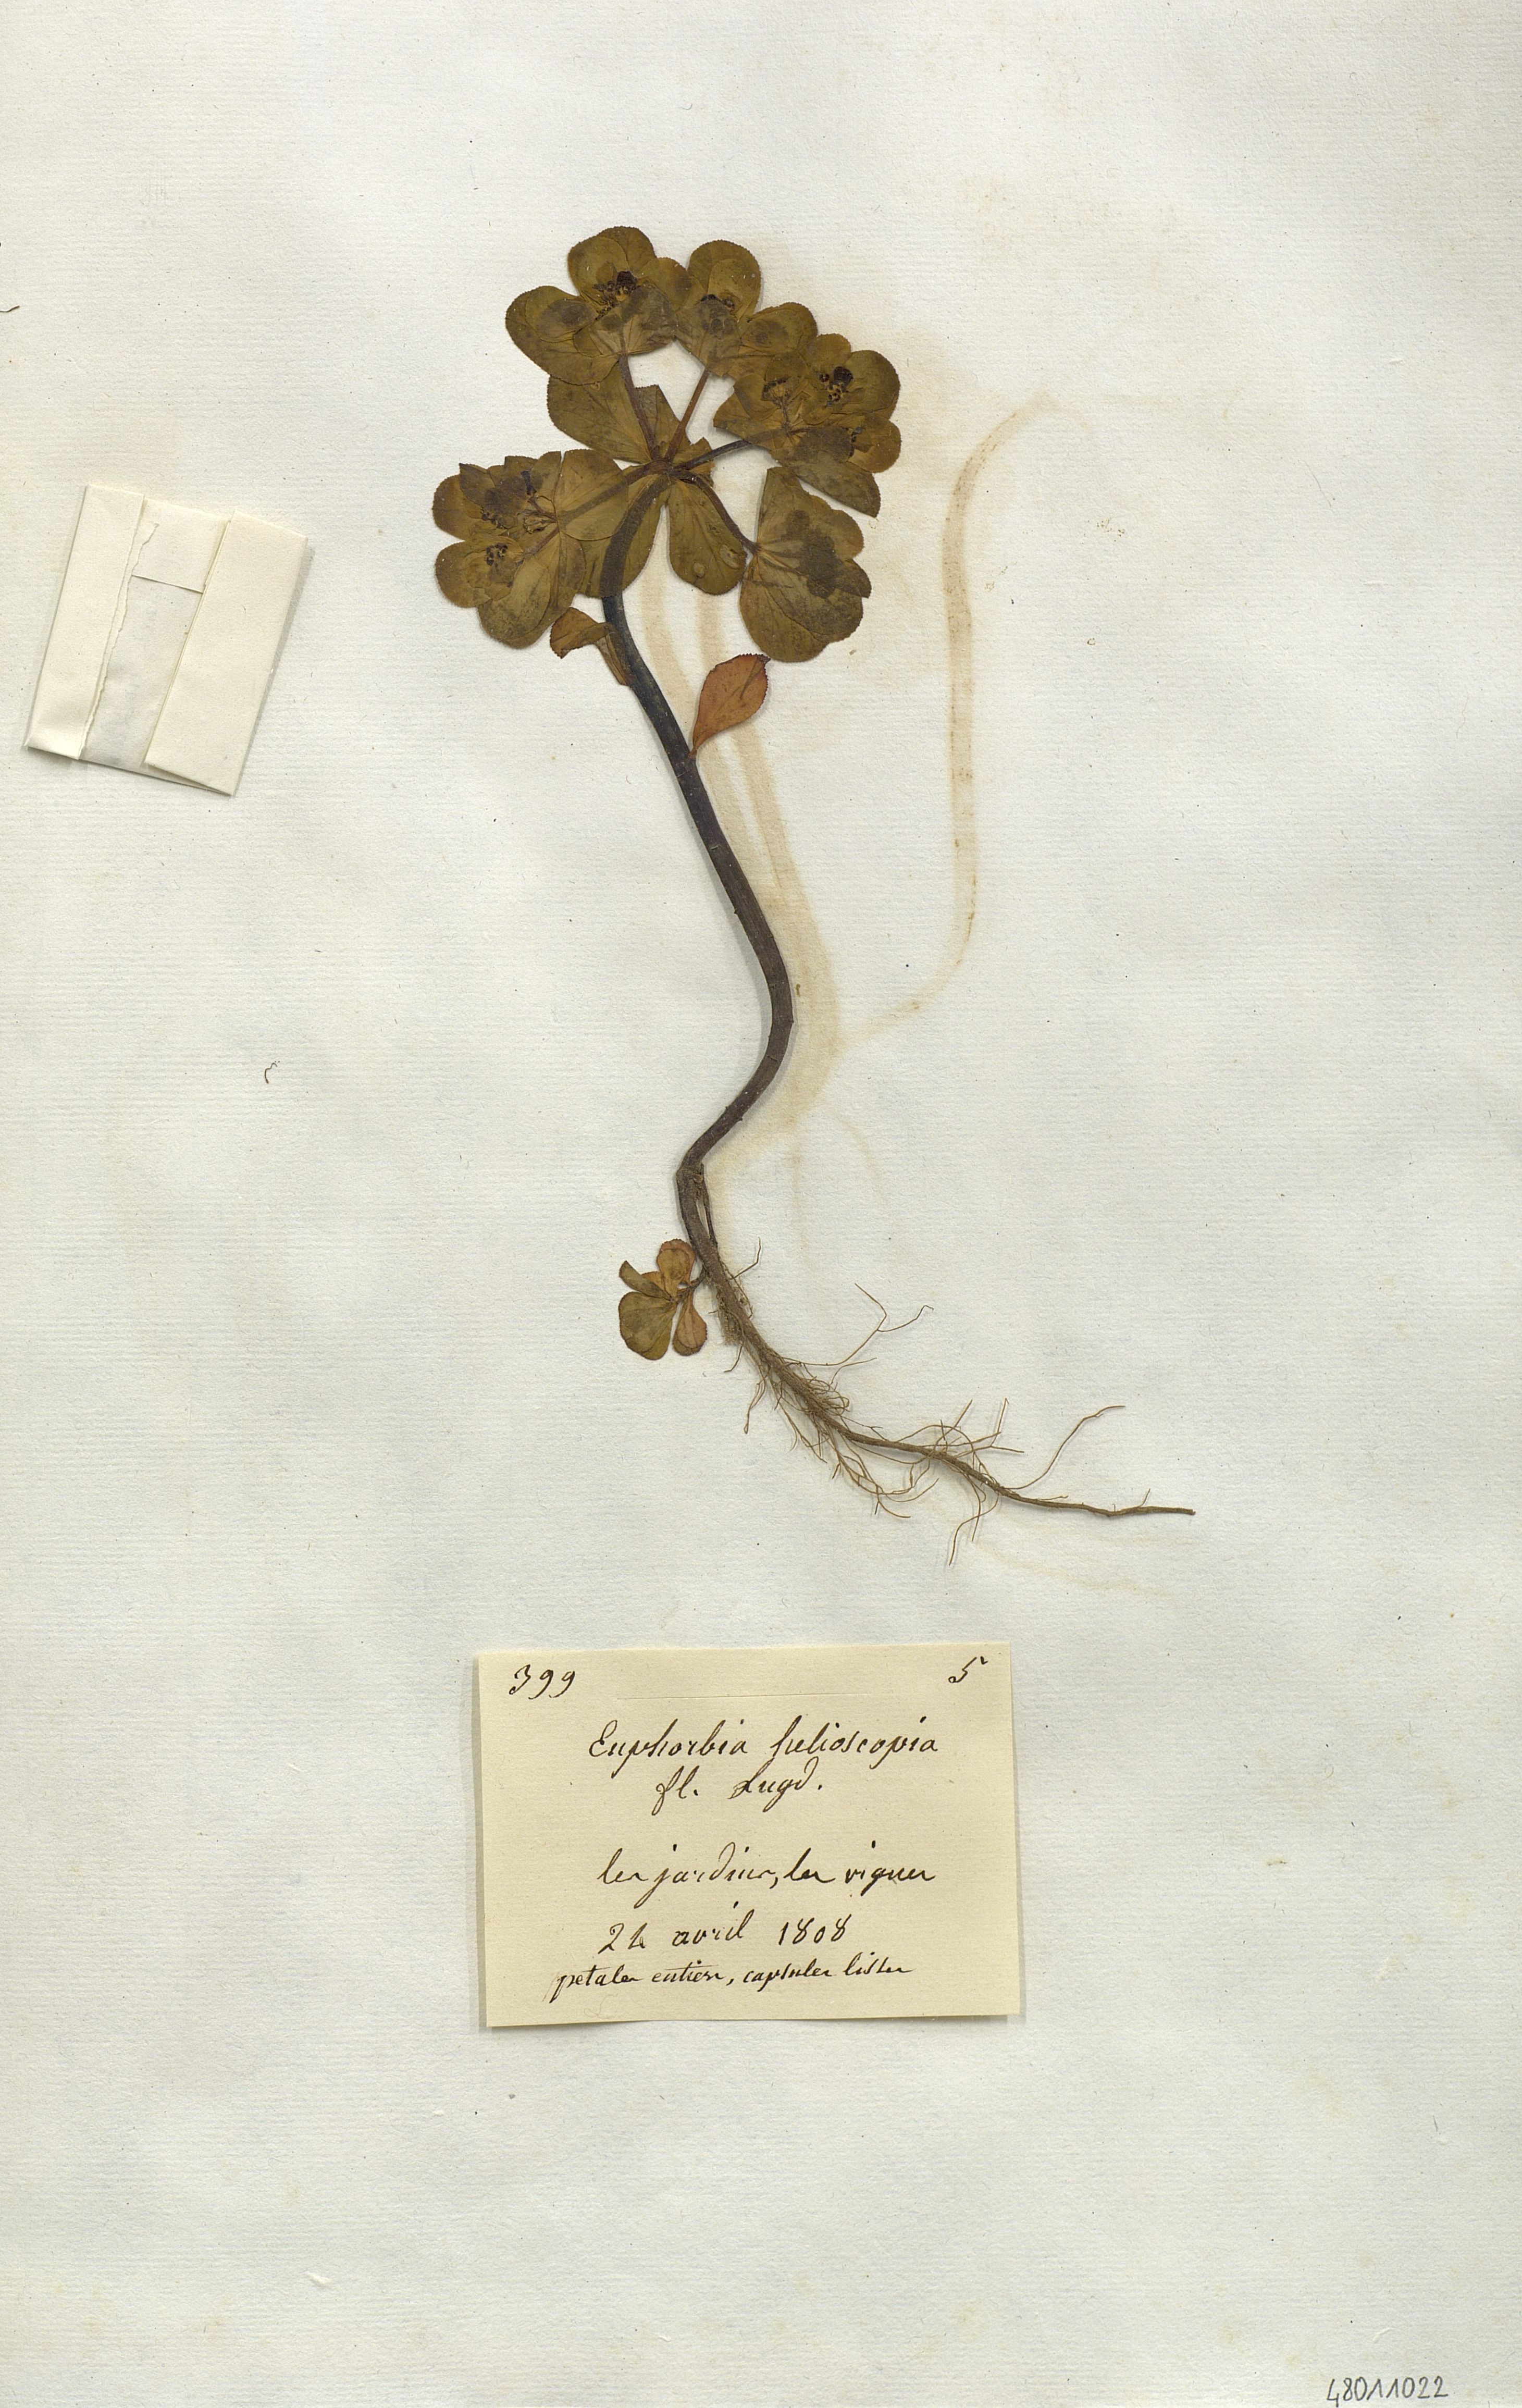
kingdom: Plantae
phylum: Tracheophyta
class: Magnoliopsida
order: Malpighiales
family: Euphorbiaceae
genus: Euphorbia
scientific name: Euphorbia helioscopia
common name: Sun spurge
